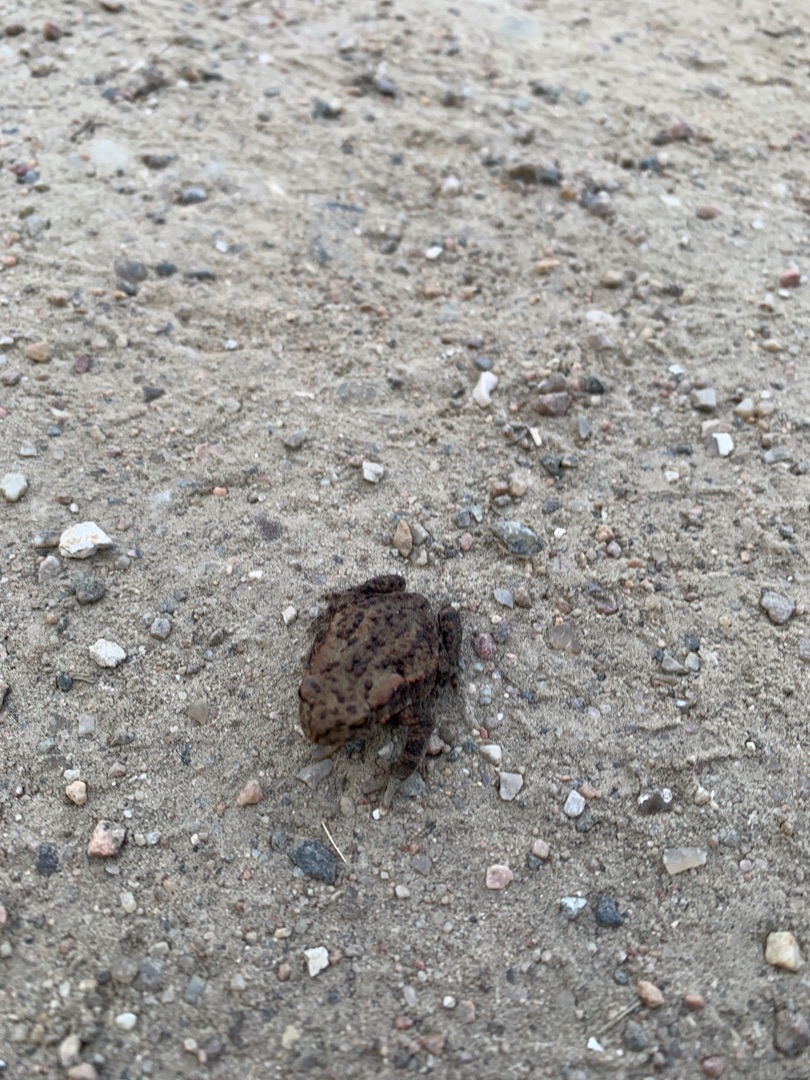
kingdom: Animalia
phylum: Chordata
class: Amphibia
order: Anura
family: Bufonidae
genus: Bufo
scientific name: Bufo bufo
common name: Skrubtudse
